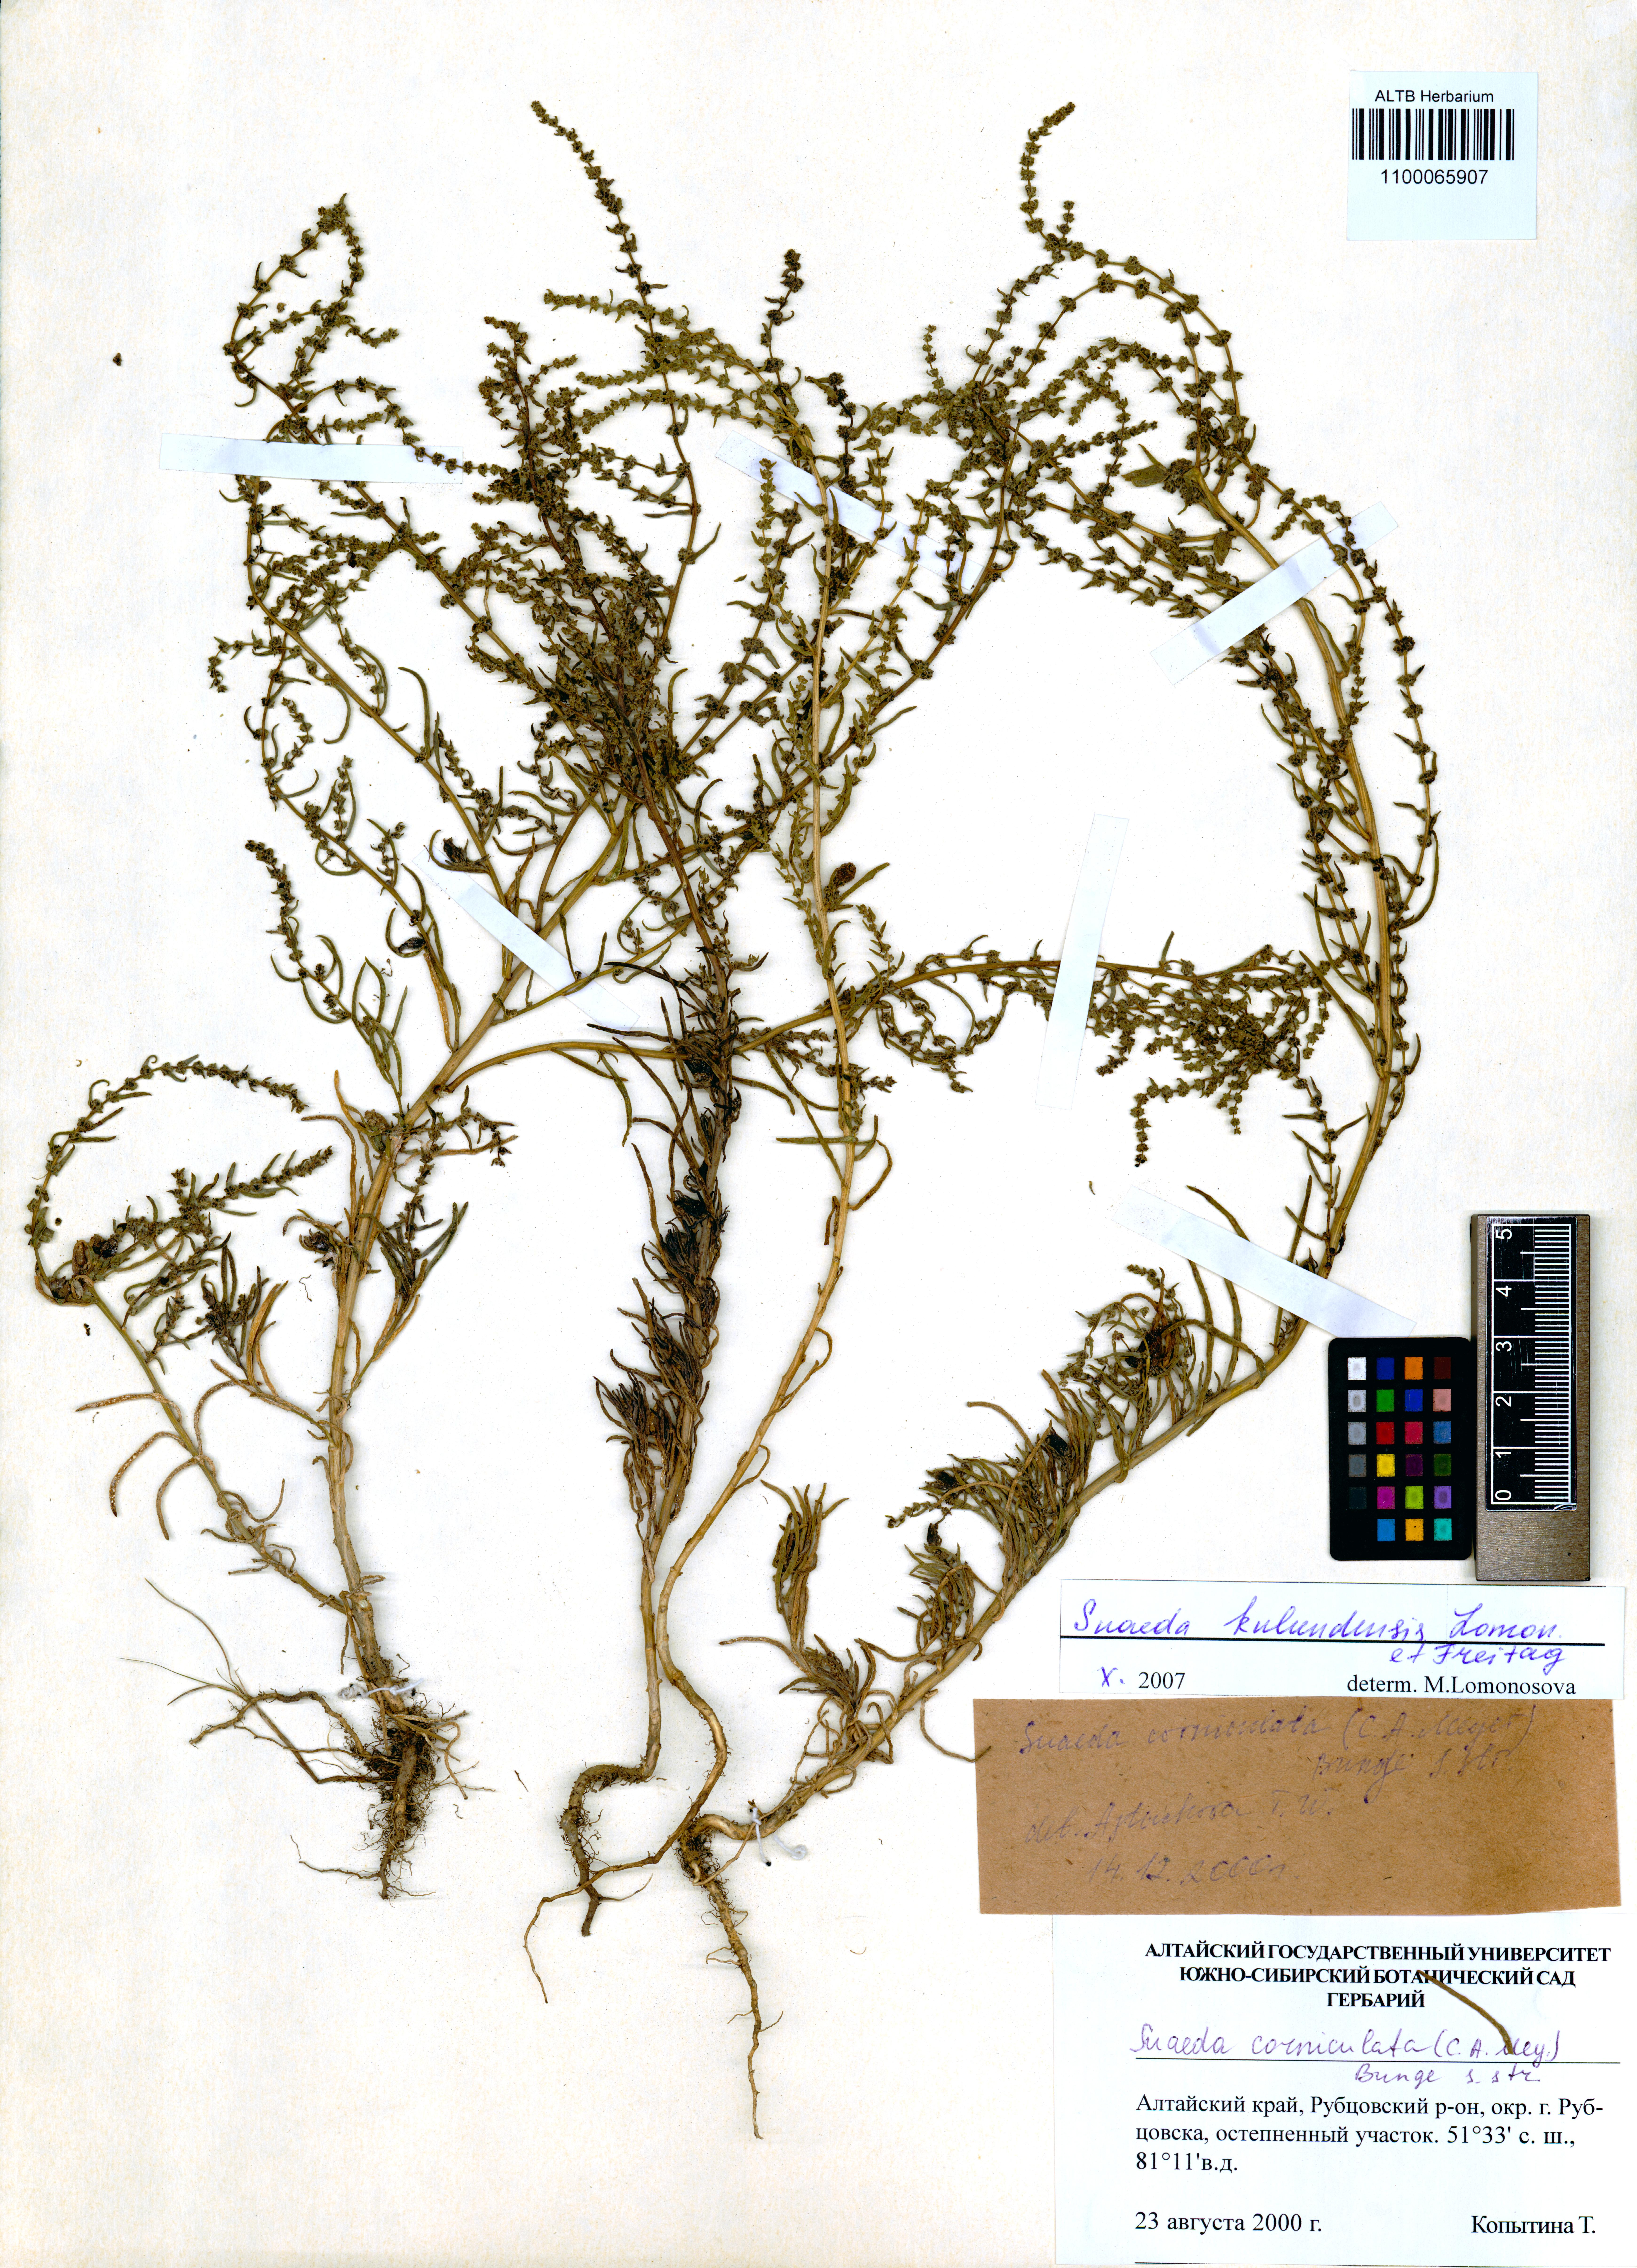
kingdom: Plantae
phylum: Tracheophyta
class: Magnoliopsida
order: Caryophyllales
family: Amaranthaceae
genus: Suaeda
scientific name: Suaeda kulundensis
